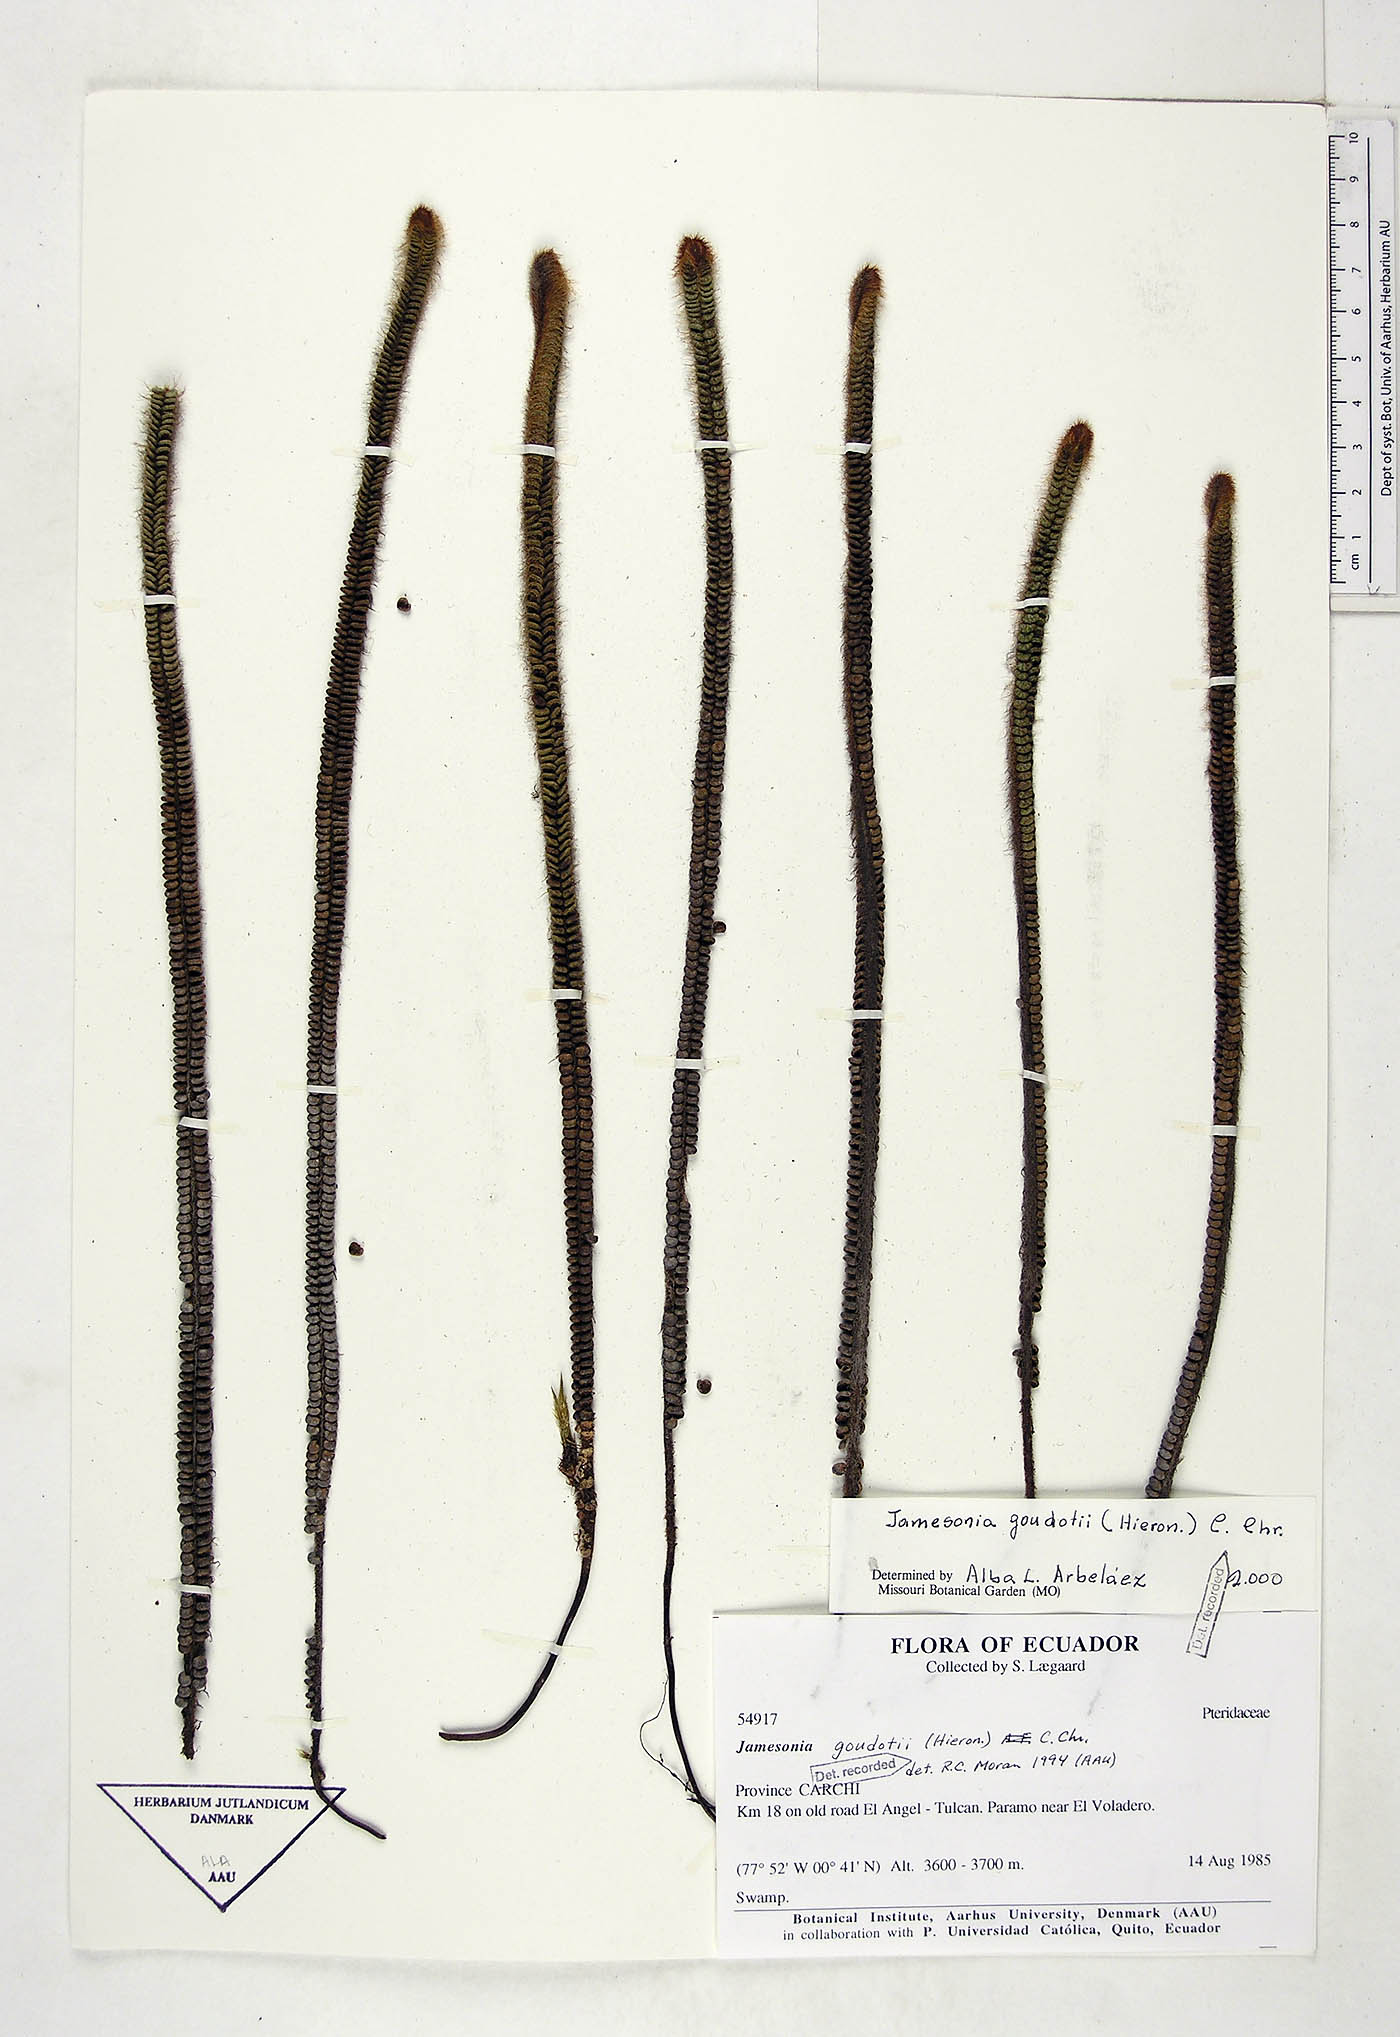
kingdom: Plantae
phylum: Tracheophyta
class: Polypodiopsida
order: Polypodiales
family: Pteridaceae
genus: Jamesonia
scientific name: Jamesonia goudotii
